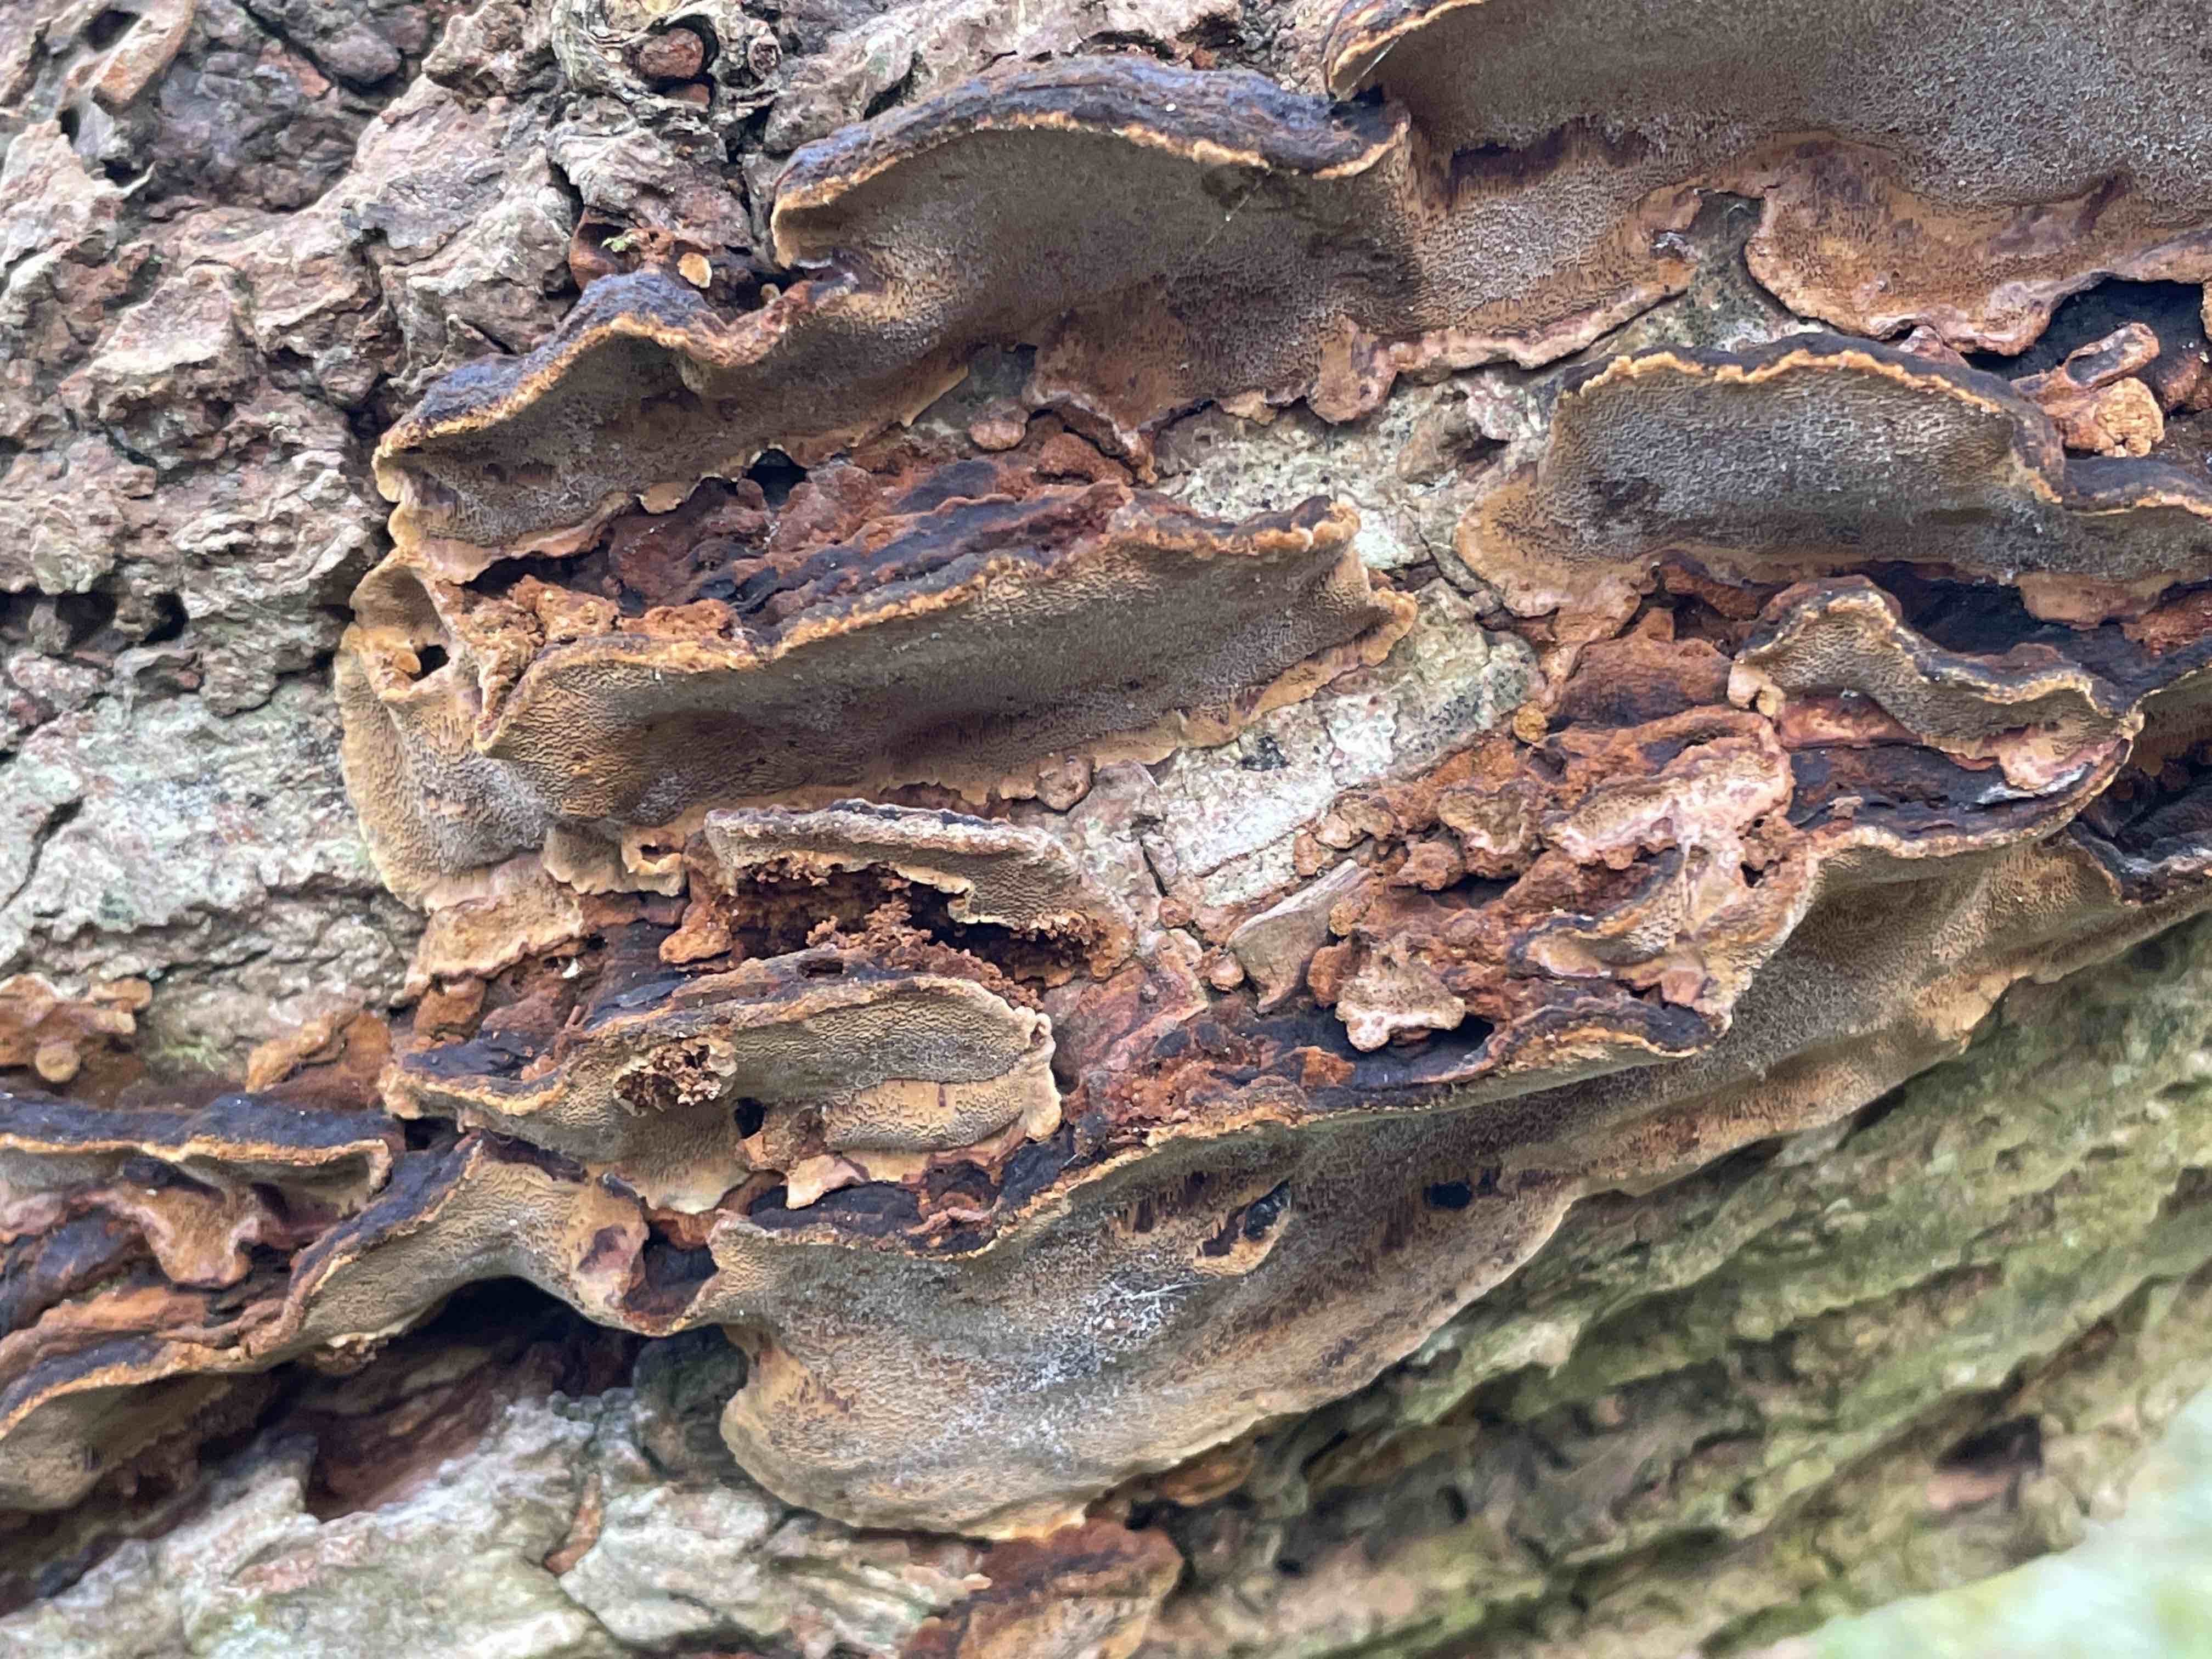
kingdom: Fungi
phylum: Basidiomycota
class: Agaricomycetes
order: Hymenochaetales
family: Hymenochaetaceae
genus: Phellinopsis
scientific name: Phellinopsis conchata
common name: pile-ildporesvamp
